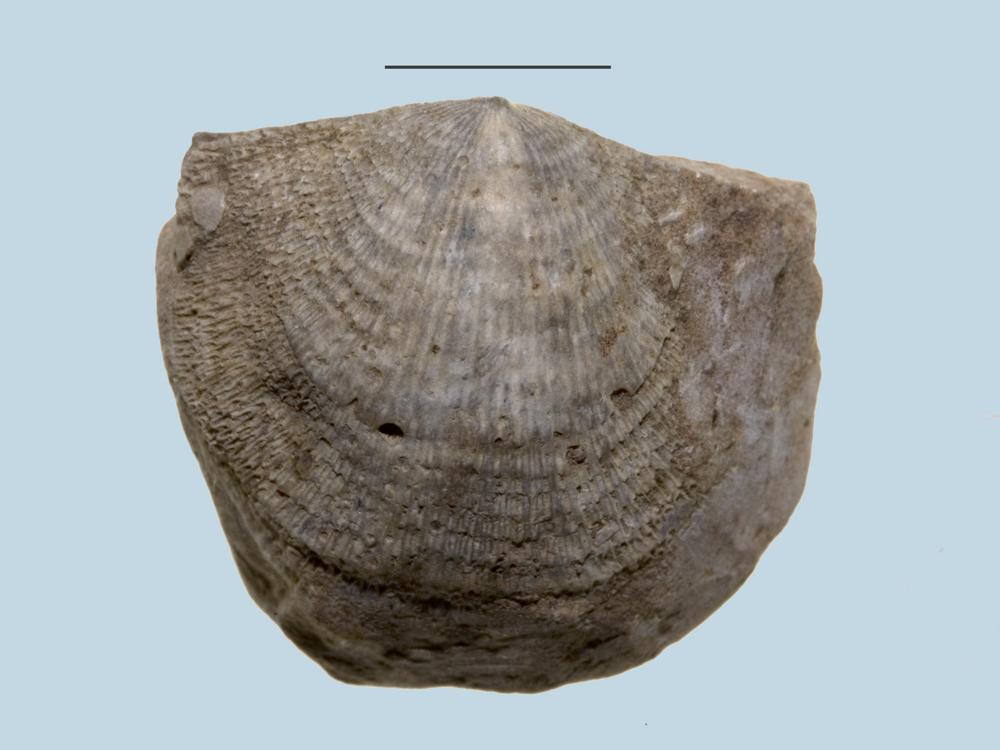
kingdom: Animalia
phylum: Brachiopoda
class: Rhynchonellata
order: Rhynchonellida
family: Camarotoechiidae
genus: Camarotoechia
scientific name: Camarotoechia
